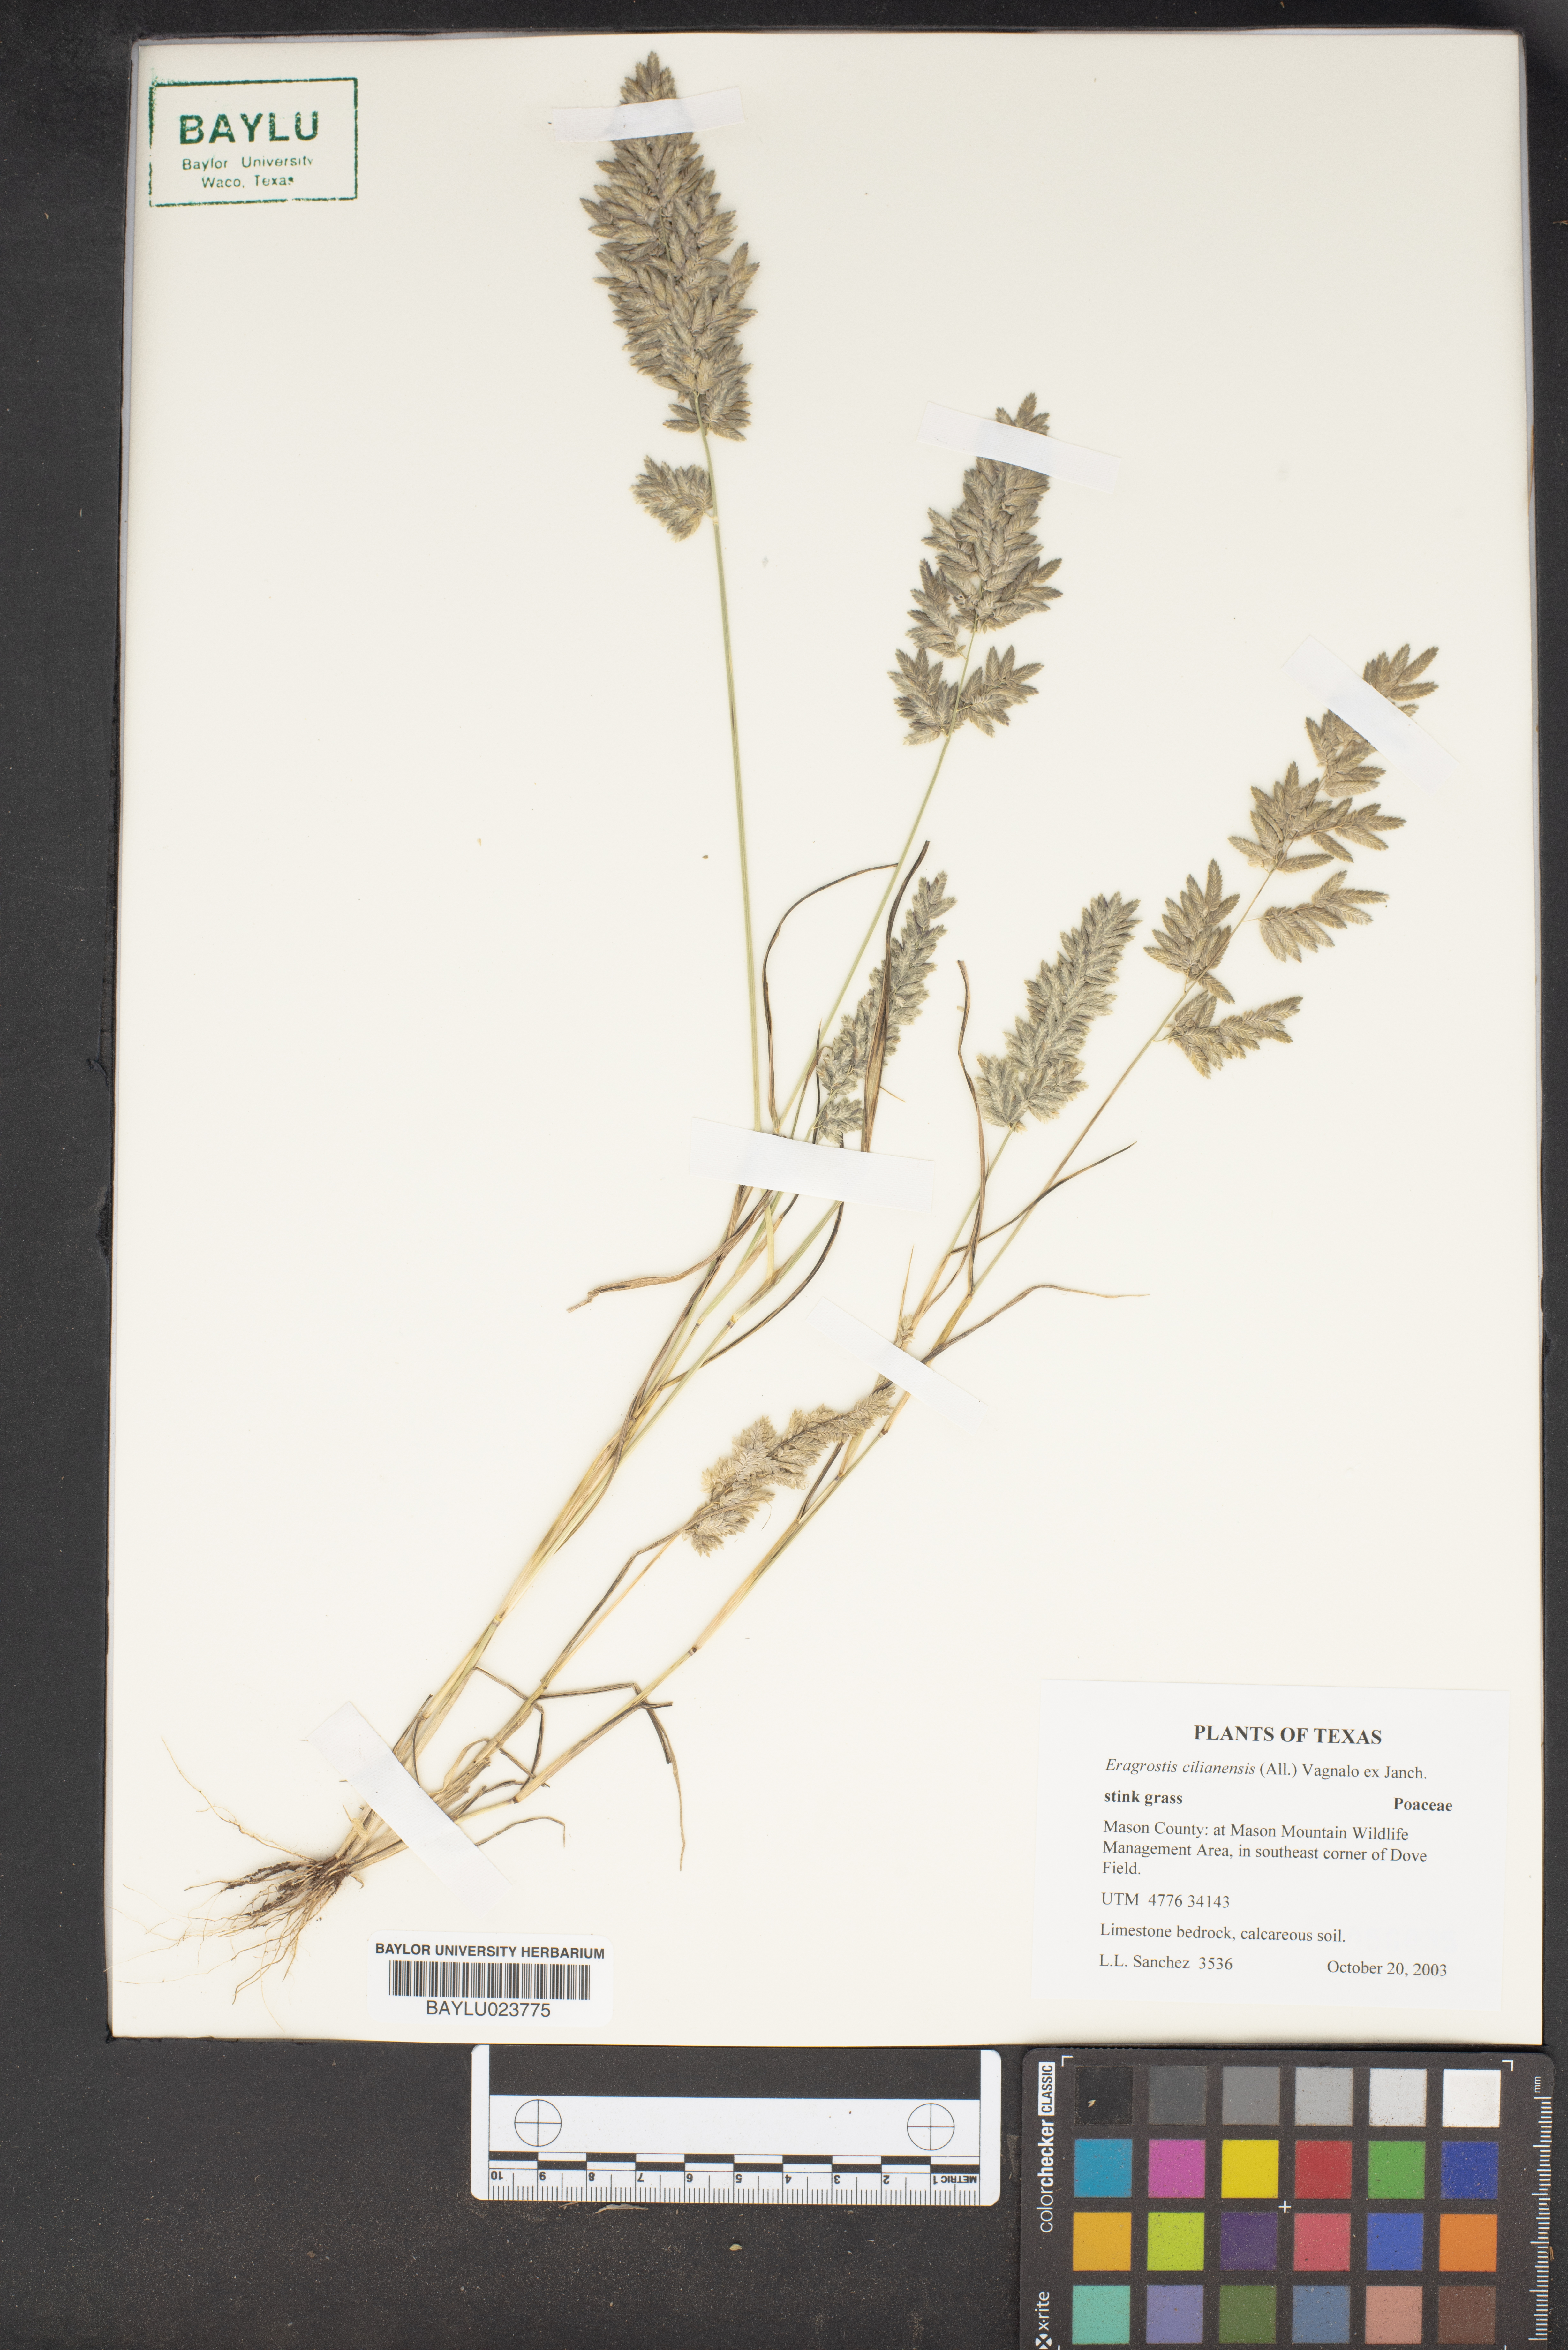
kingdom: Plantae
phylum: Tracheophyta
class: Liliopsida
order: Poales
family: Poaceae
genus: Eragrostis
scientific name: Eragrostis cilianensis
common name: Stinkgrass
